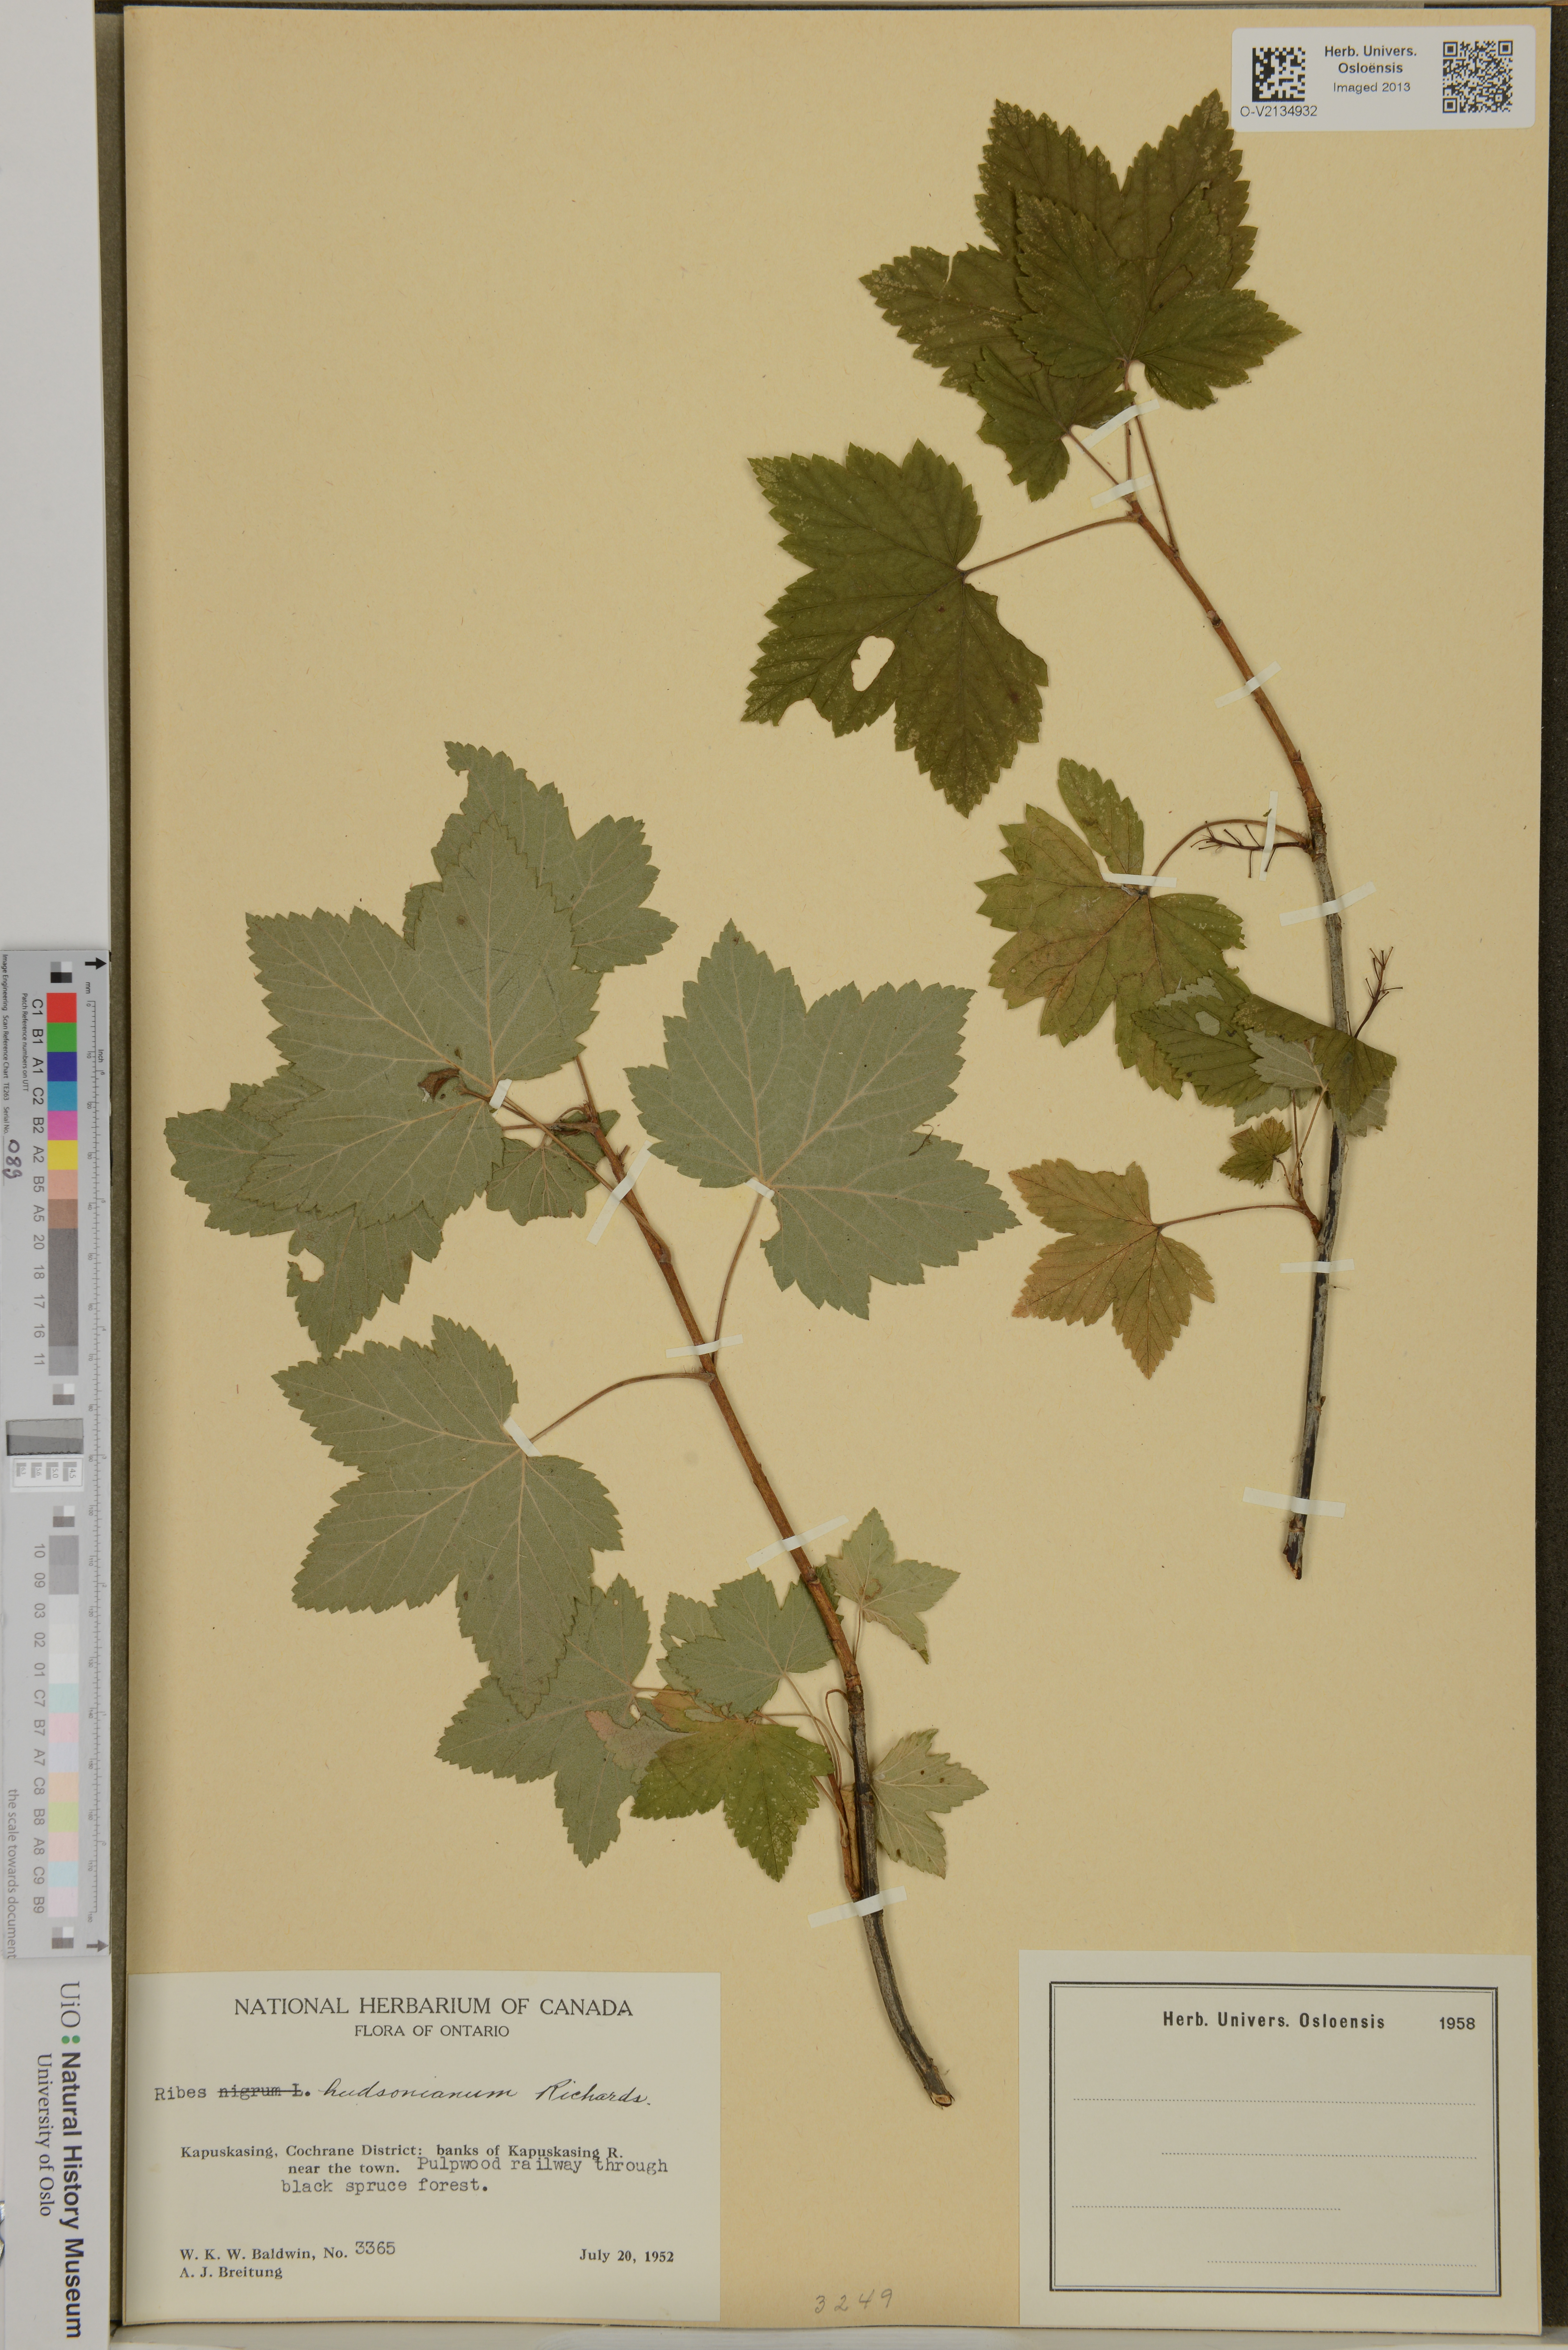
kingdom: Plantae
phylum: Tracheophyta
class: Magnoliopsida
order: Saxifragales
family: Grossulariaceae
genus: Ribes
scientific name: Ribes hudsonianum
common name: Northern black currant
